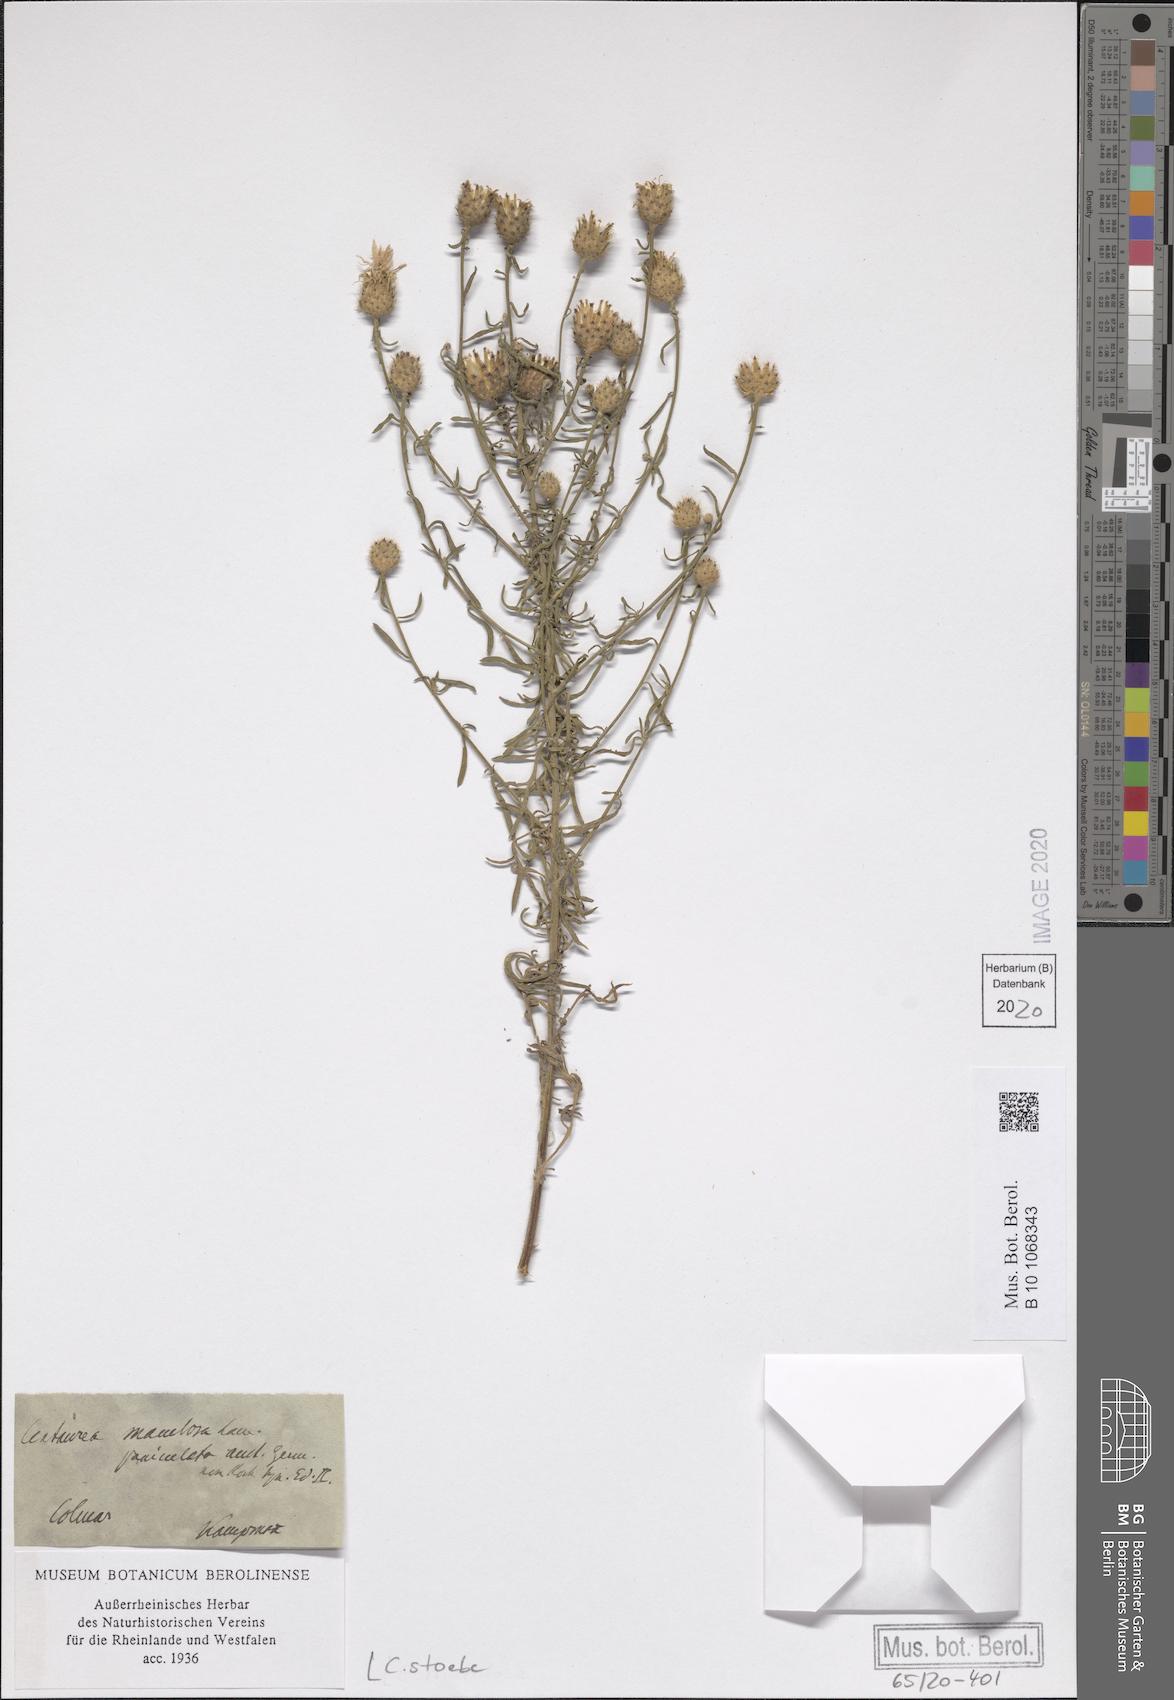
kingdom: Plantae
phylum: Tracheophyta
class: Magnoliopsida
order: Asterales
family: Asteraceae
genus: Centaurea
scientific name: Centaurea stoebe
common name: Spotted knapweed
